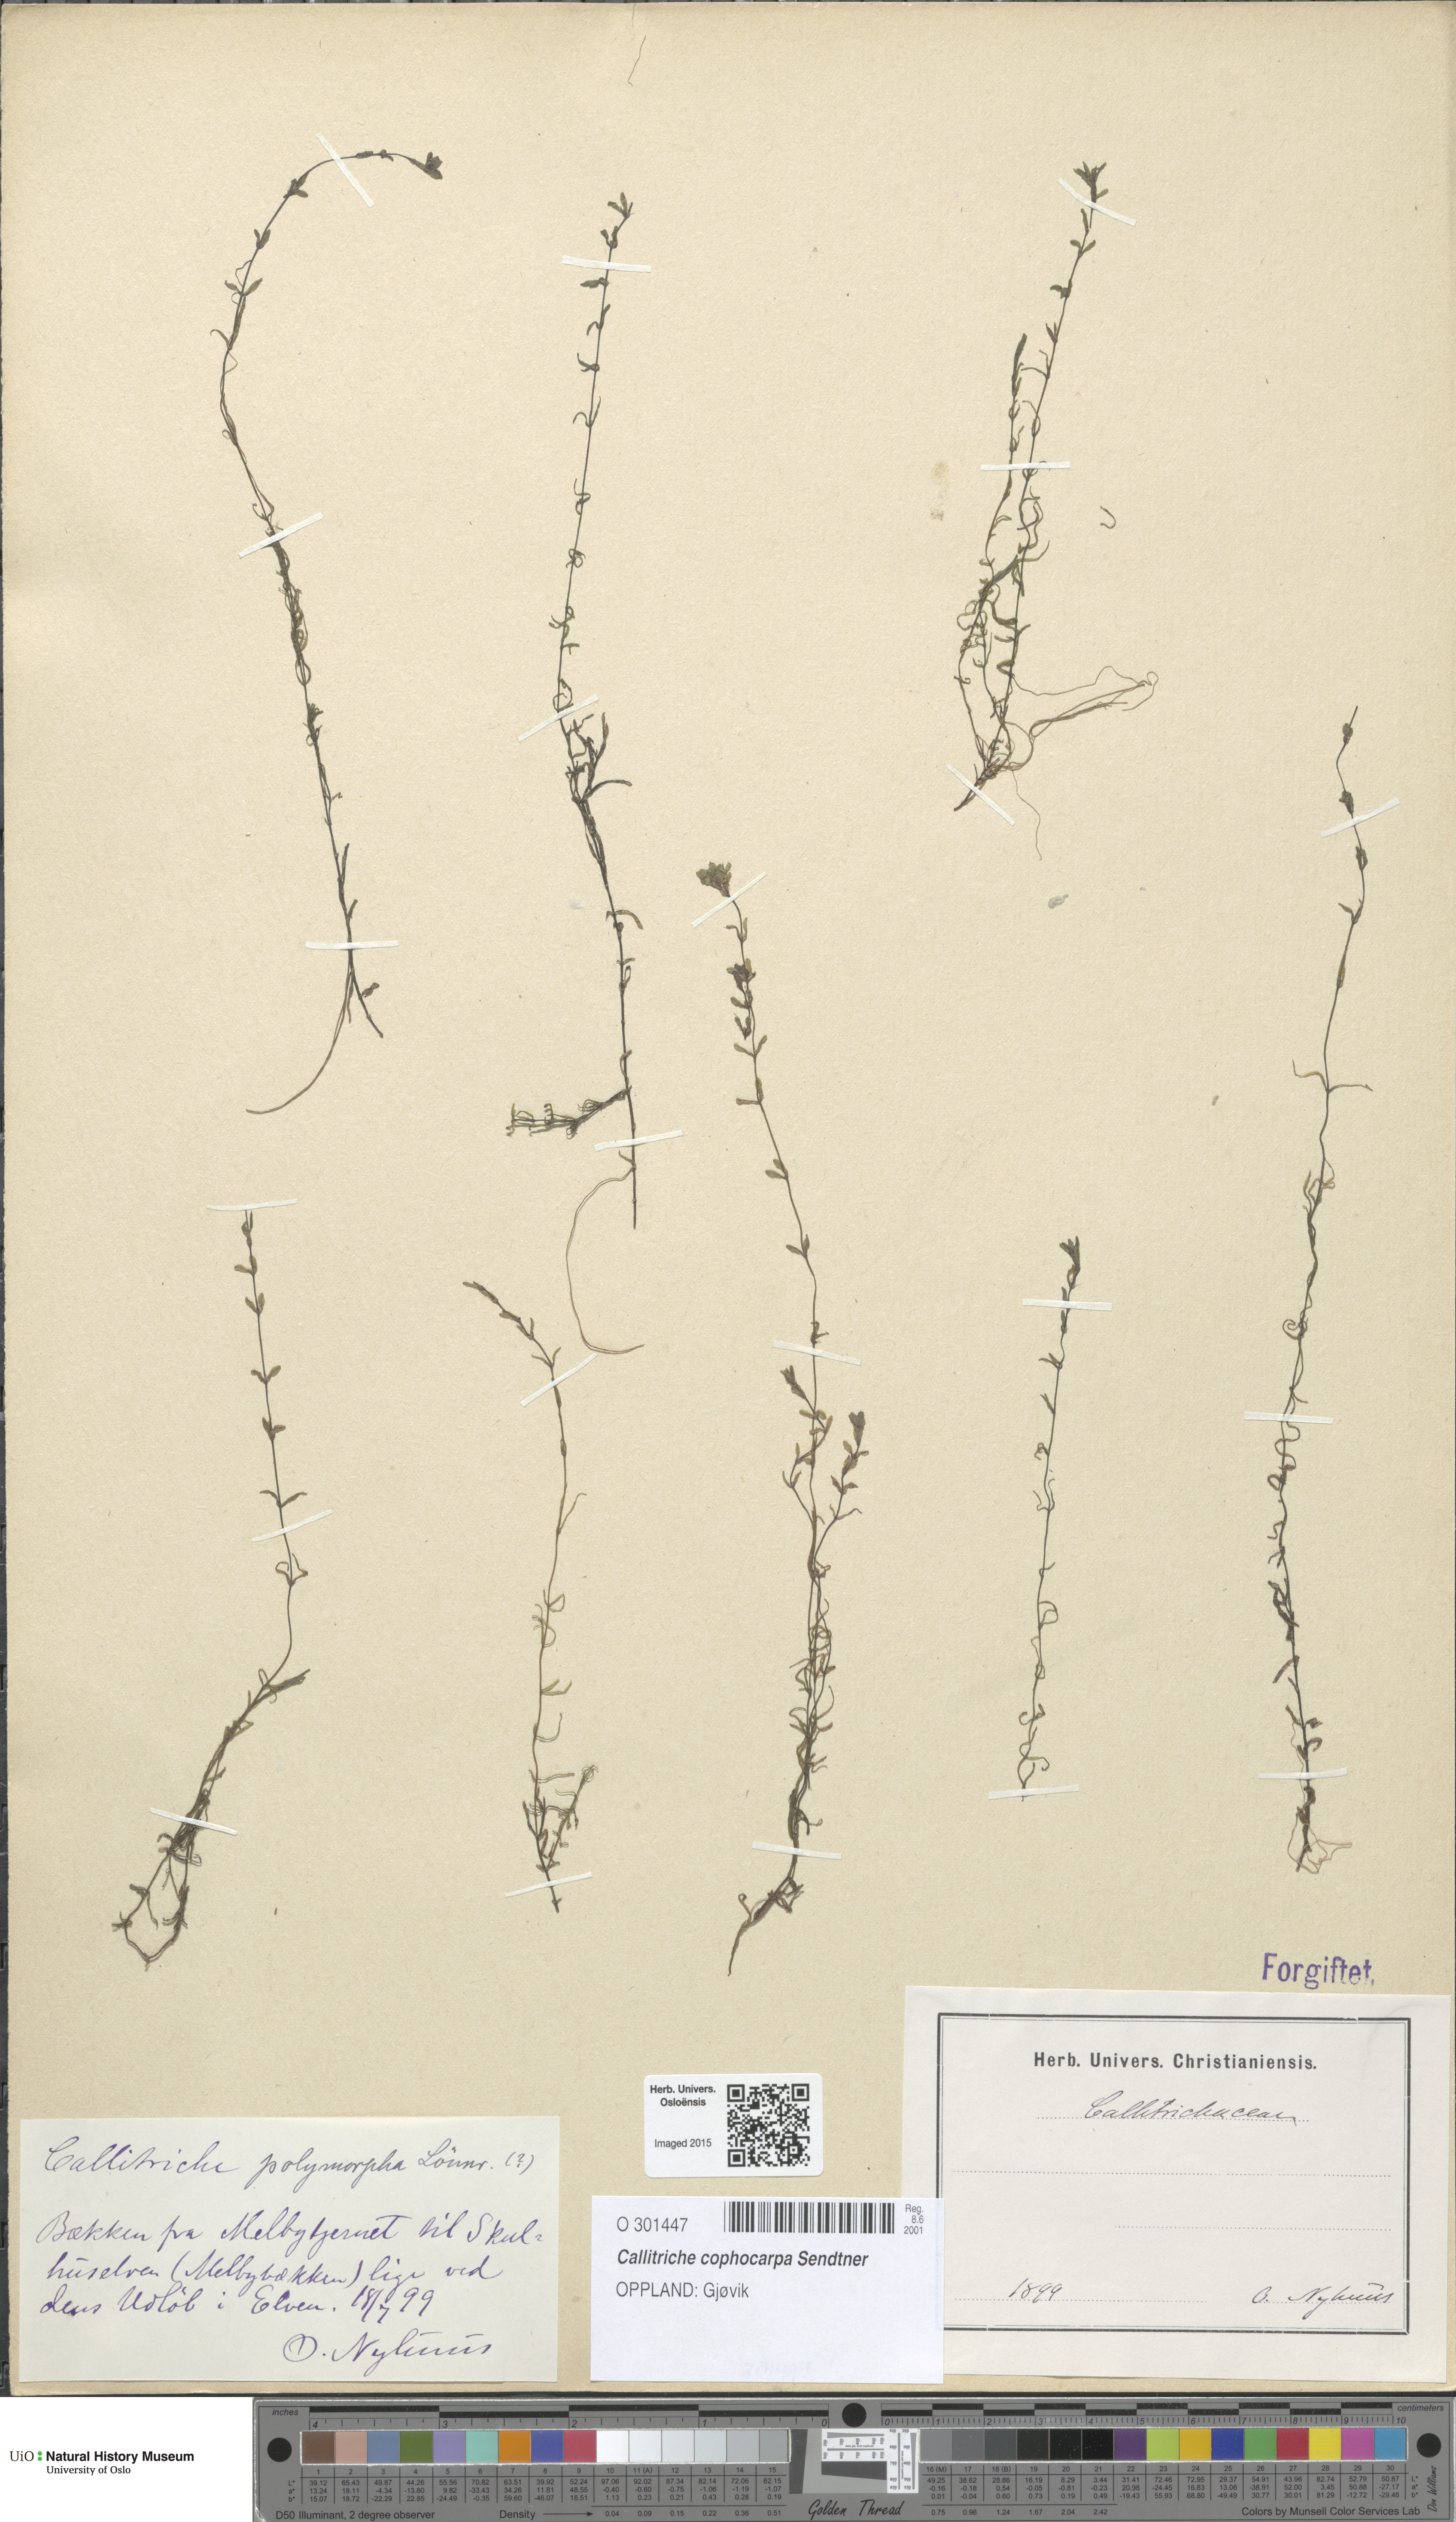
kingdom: Plantae
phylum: Tracheophyta
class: Magnoliopsida
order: Lamiales
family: Plantaginaceae
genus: Callitriche
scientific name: Callitriche cophocarpa
